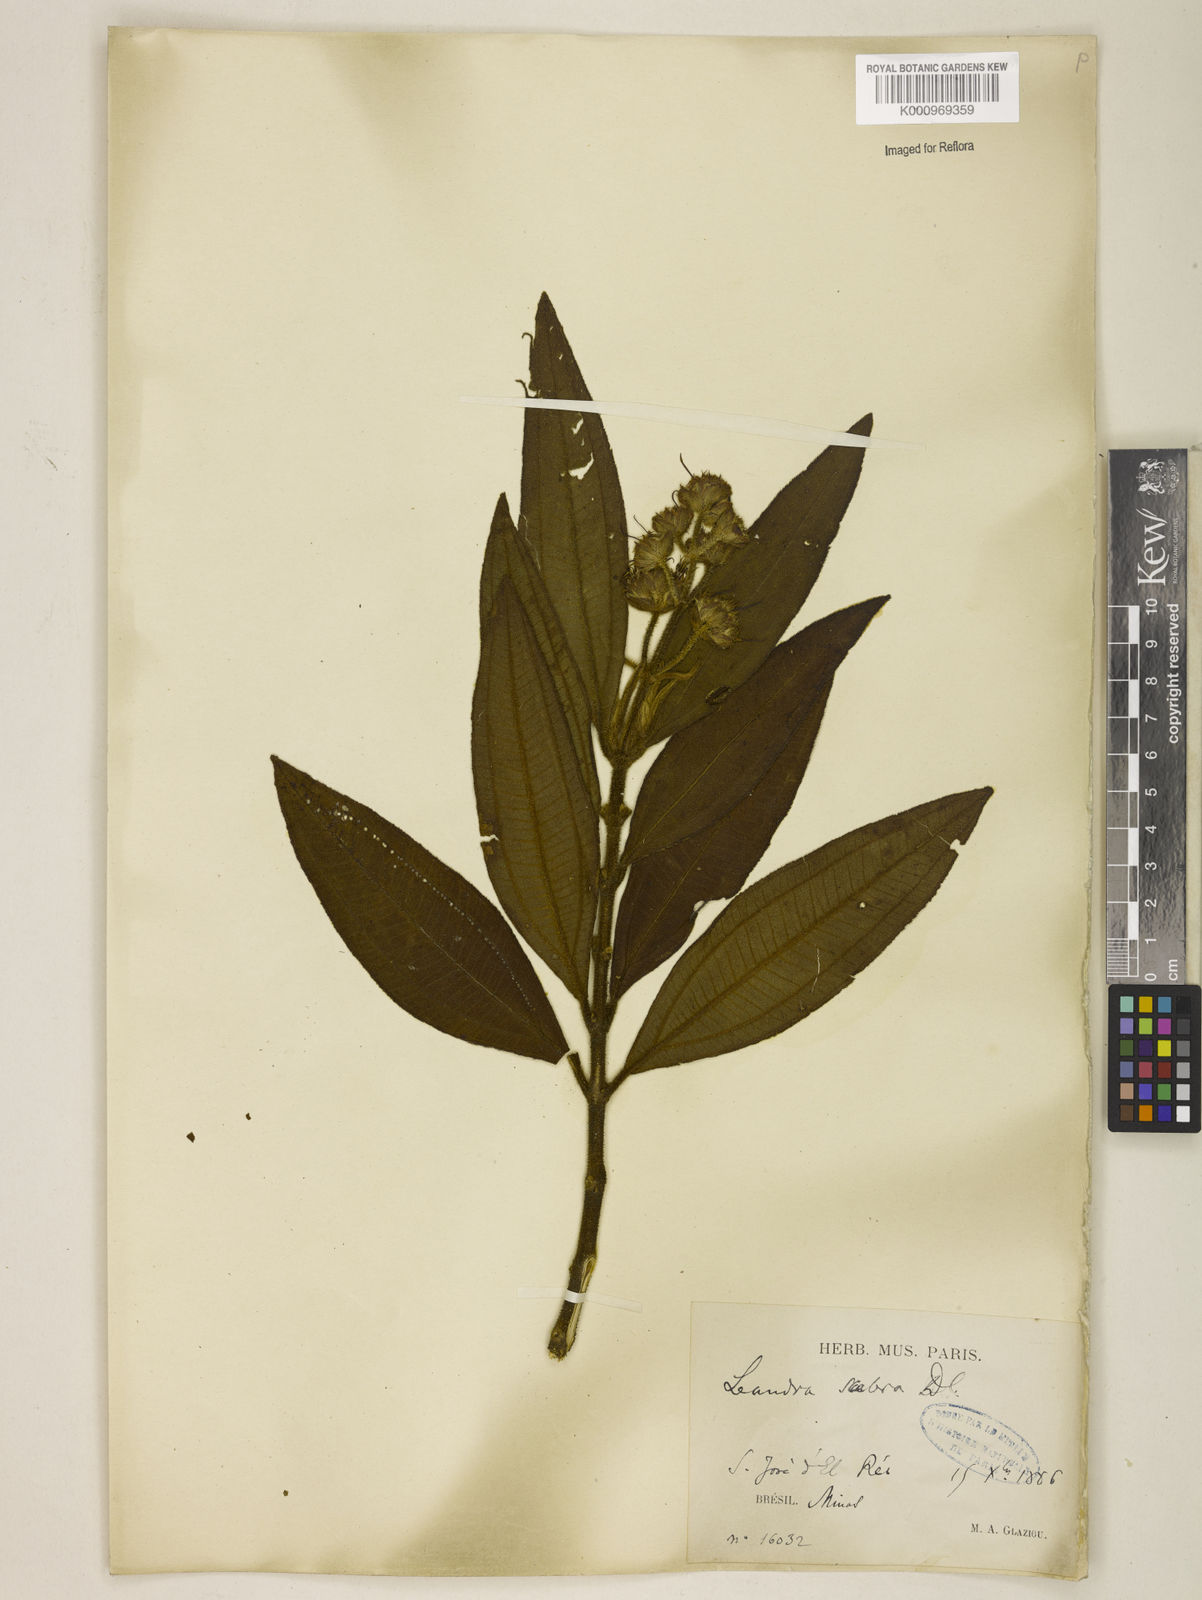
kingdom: Plantae
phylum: Tracheophyta
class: Magnoliopsida
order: Myrtales
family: Melastomataceae
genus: Miconia
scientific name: Miconia melastomoides
